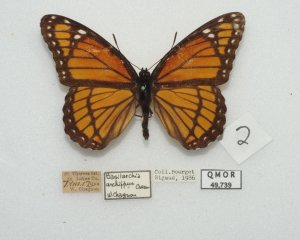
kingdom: Animalia
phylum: Arthropoda
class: Insecta
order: Lepidoptera
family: Nymphalidae
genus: Limenitis
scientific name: Limenitis archippus
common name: Viceroy
